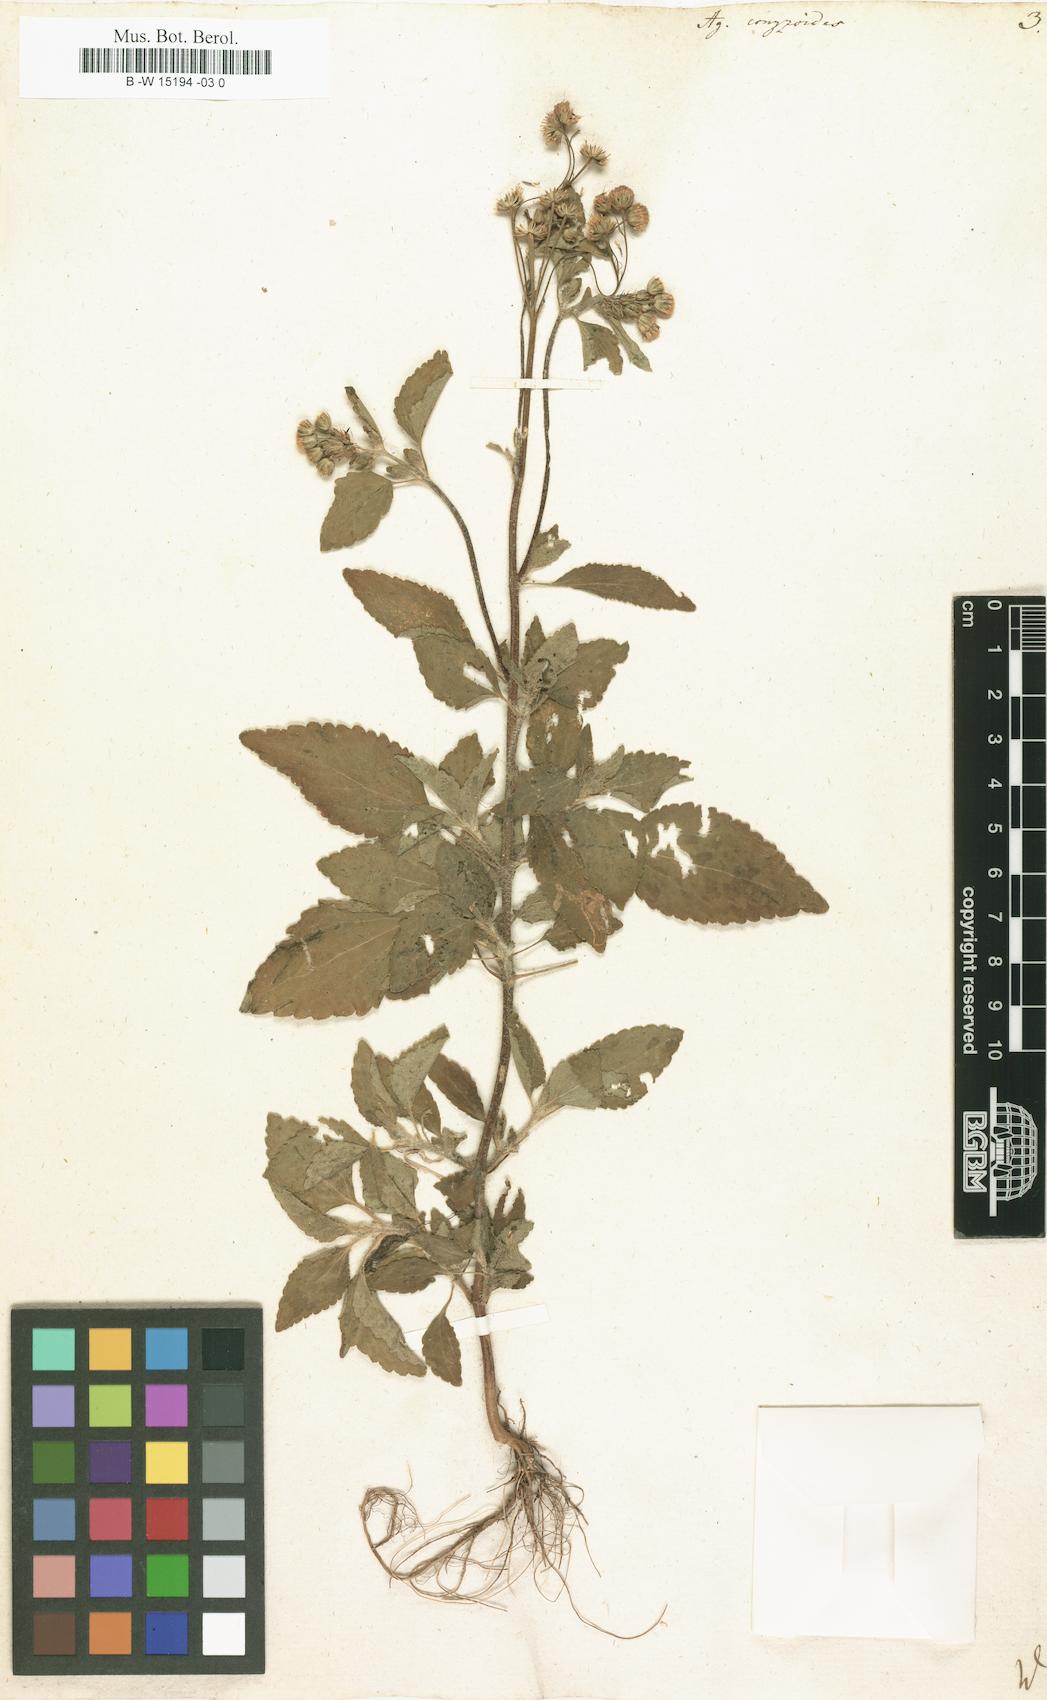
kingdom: Plantae
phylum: Tracheophyta
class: Magnoliopsida
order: Asterales
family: Asteraceae
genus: Ageratum
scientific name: Ageratum conyzoides
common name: Tropical whiteweed
